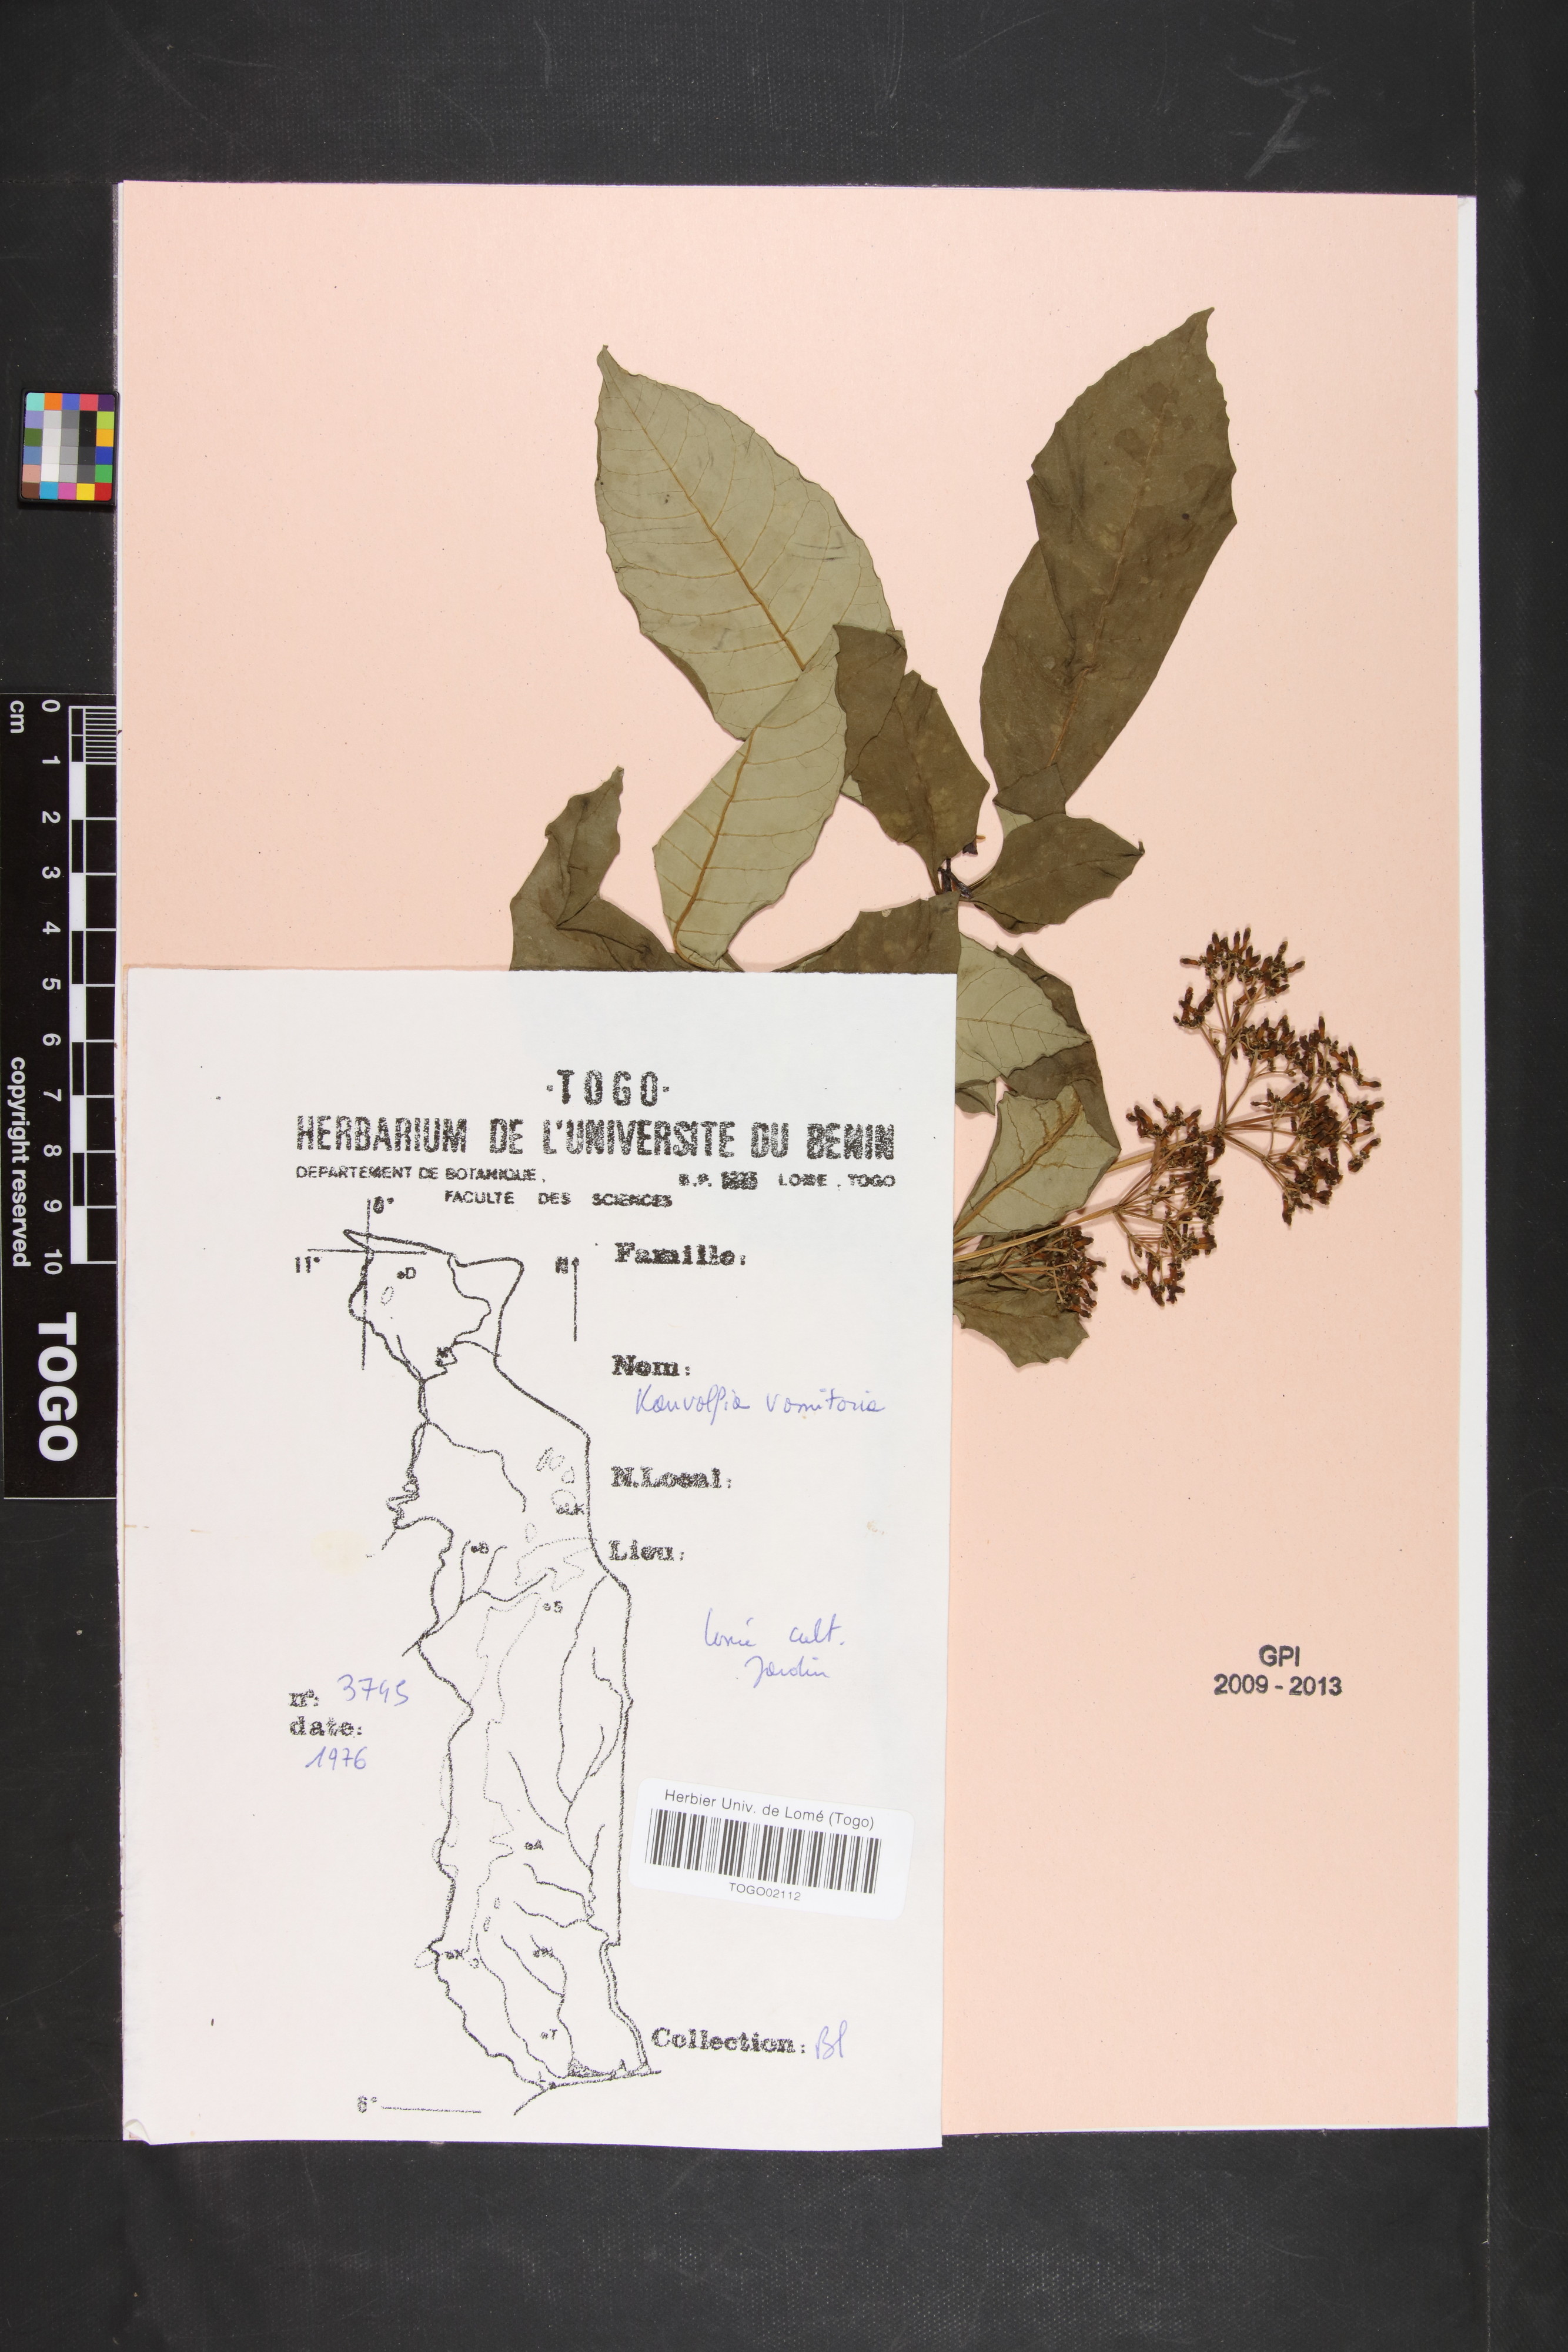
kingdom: Plantae
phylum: Tracheophyta
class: Magnoliopsida
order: Gentianales
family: Apocynaceae
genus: Rauvolfia
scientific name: Rauvolfia vomitoria
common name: Poison devil's-pepper
